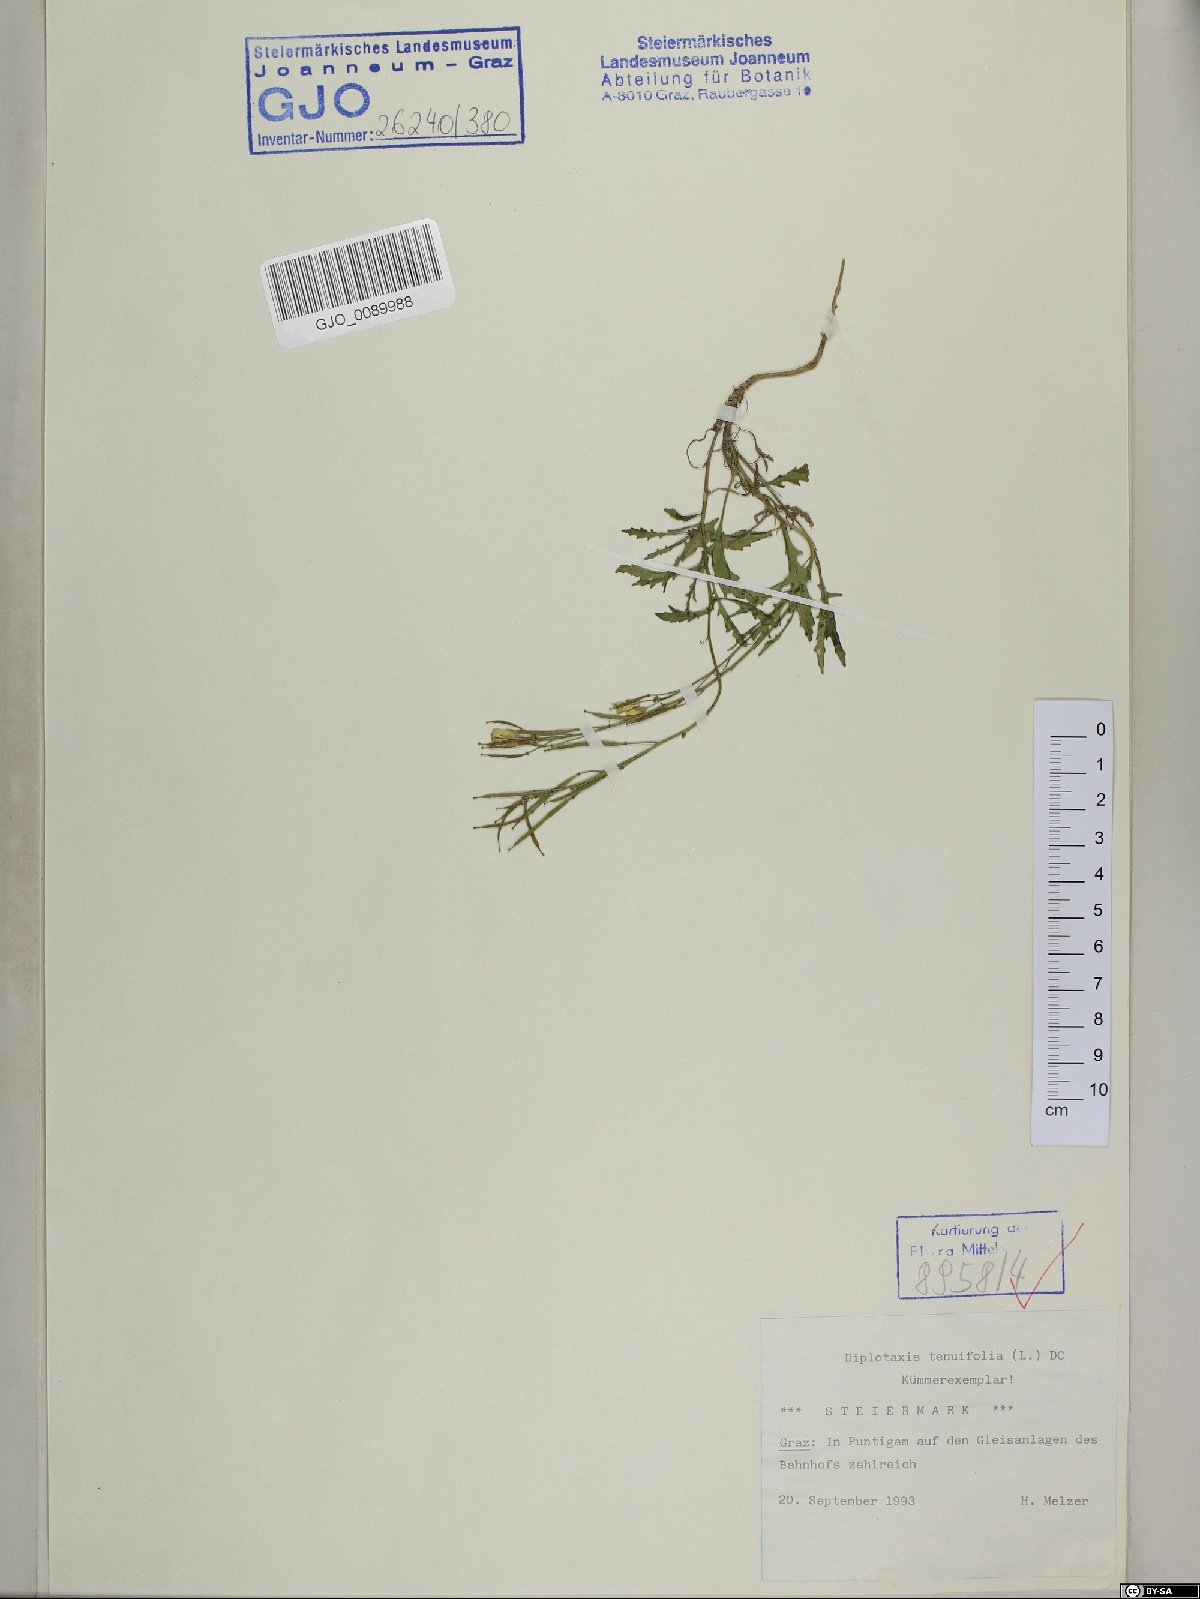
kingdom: Plantae
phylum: Tracheophyta
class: Magnoliopsida
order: Brassicales
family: Brassicaceae
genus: Diplotaxis
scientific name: Diplotaxis tenuifolia
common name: Perennial wall-rocket
